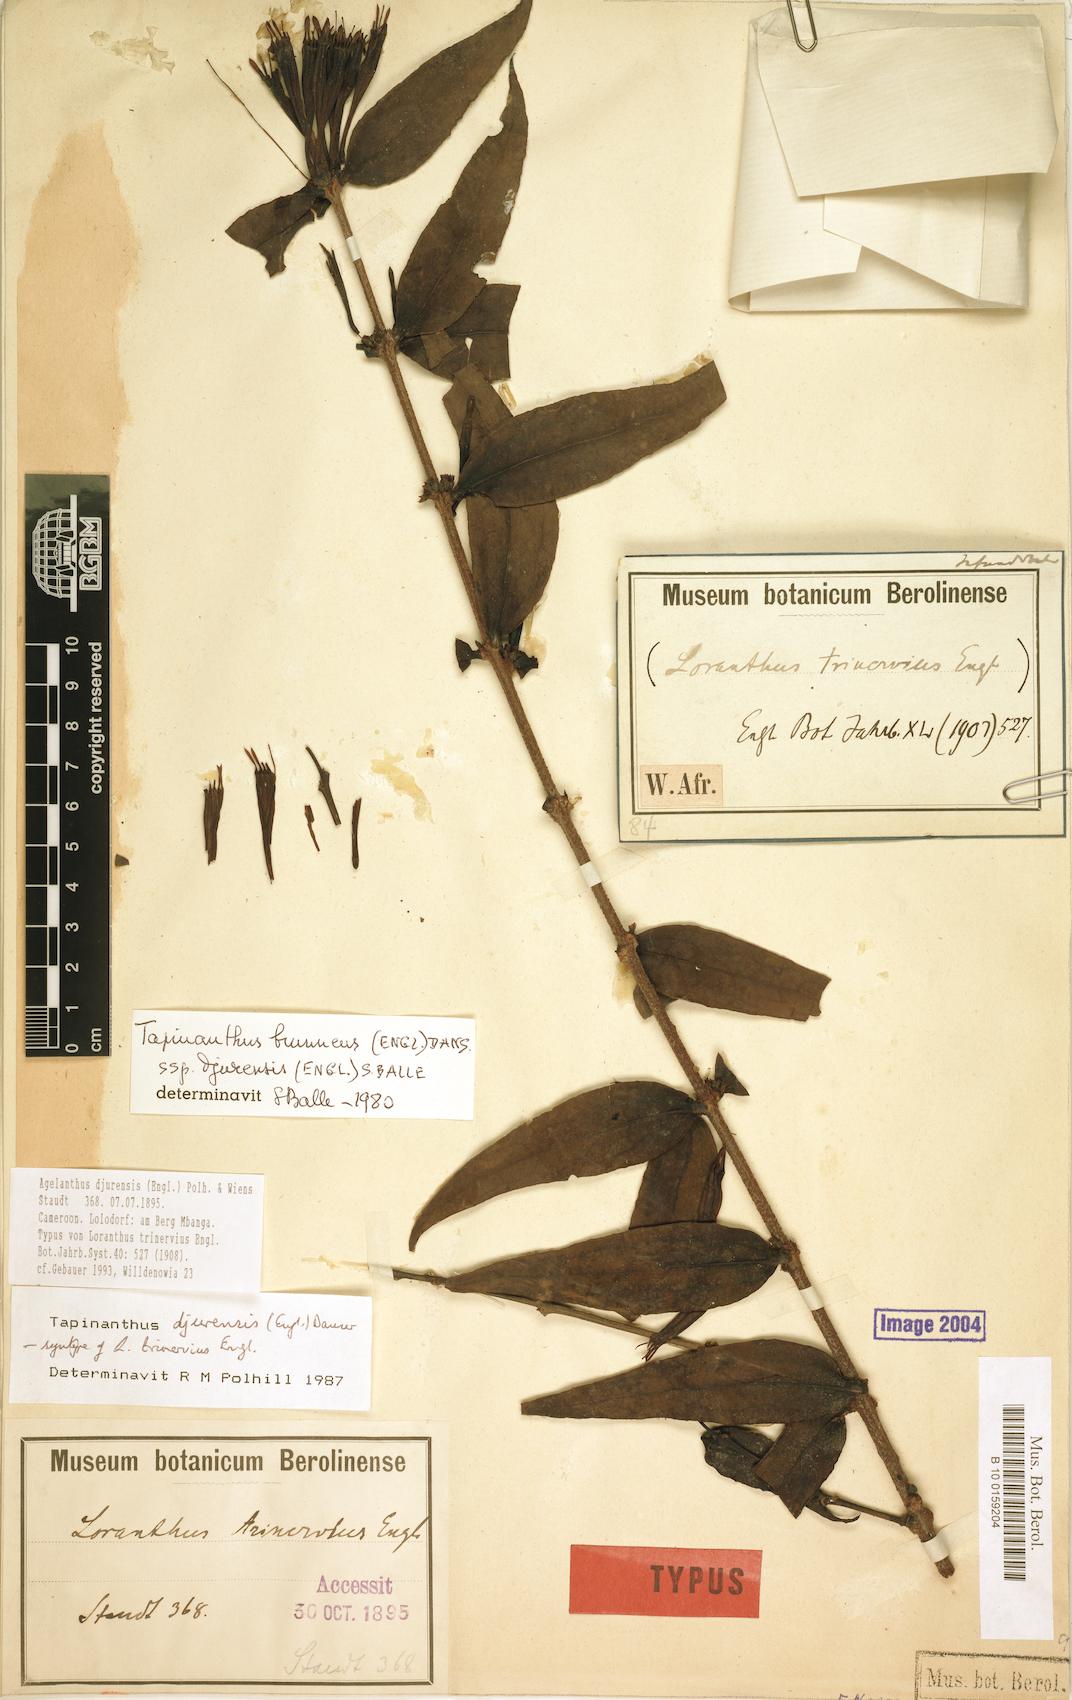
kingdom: Plantae
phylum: Tracheophyta
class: Magnoliopsida
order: Santalales
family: Loranthaceae
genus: Agelanthus
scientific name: Agelanthus djurensis
